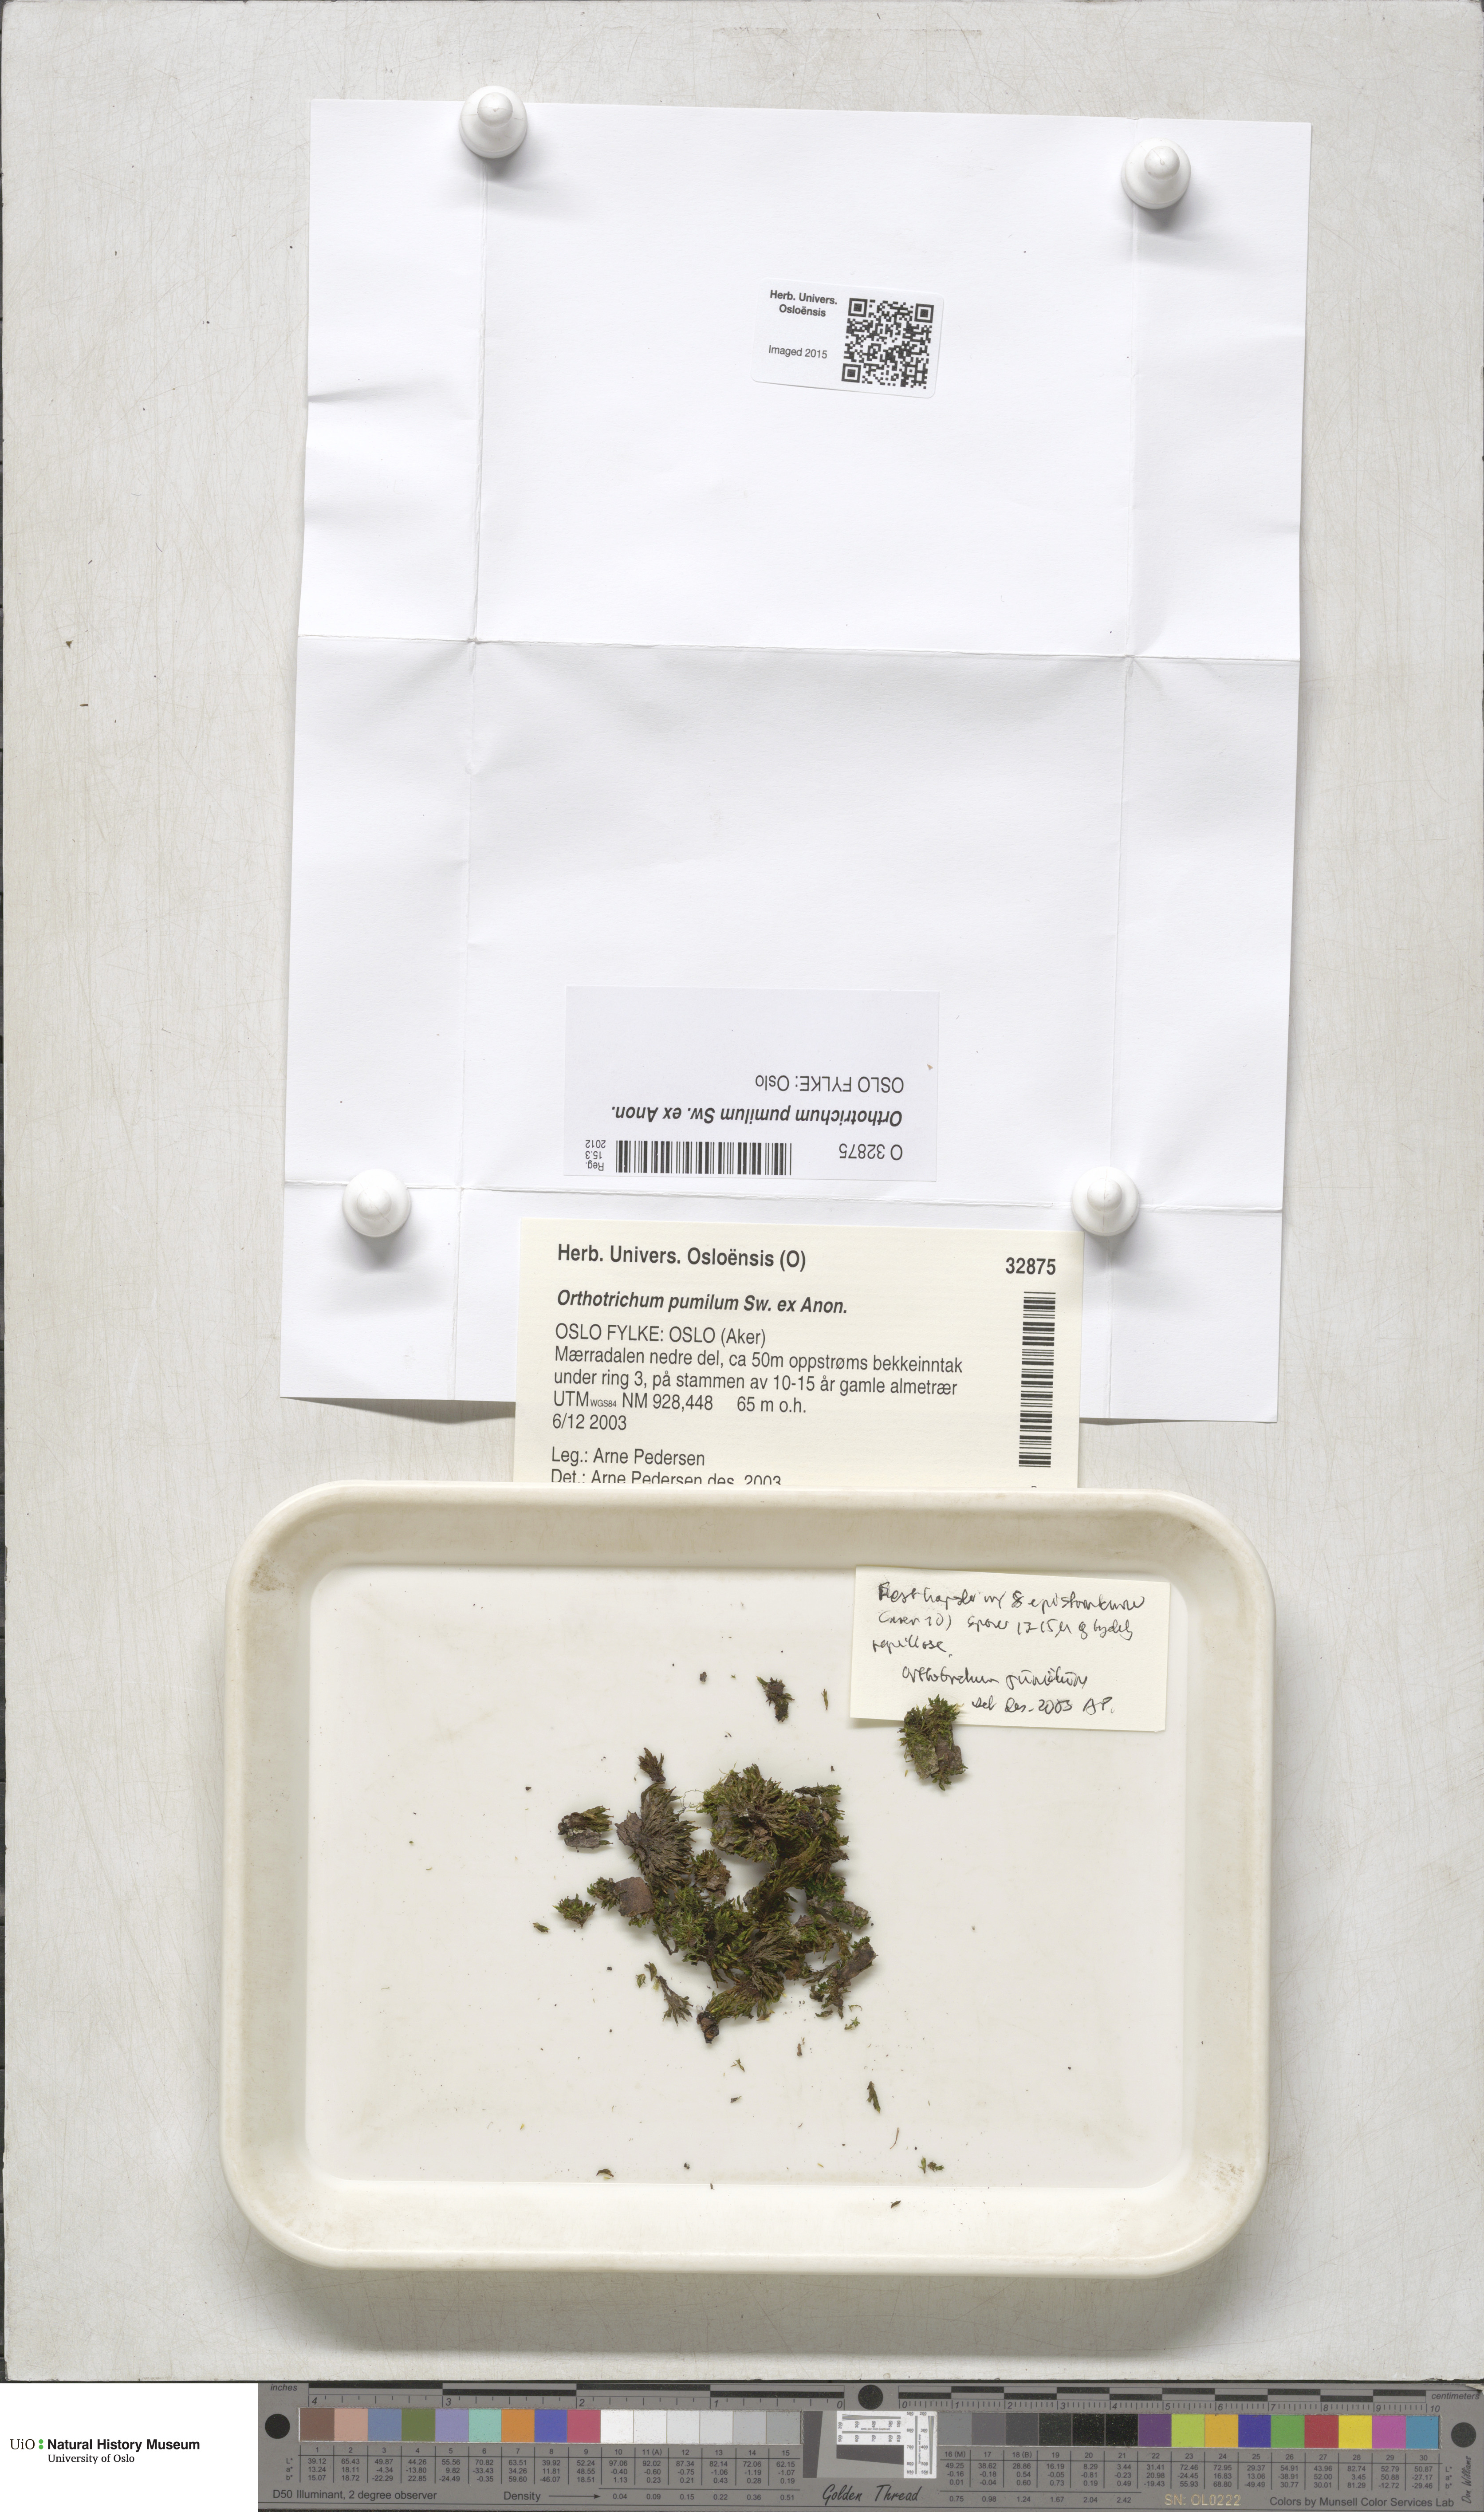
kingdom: Plantae
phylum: Bryophyta
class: Bryopsida
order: Orthotrichales
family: Orthotrichaceae
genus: Orthotrichum
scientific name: Orthotrichum pumilum
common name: Dwarf bristle moss
